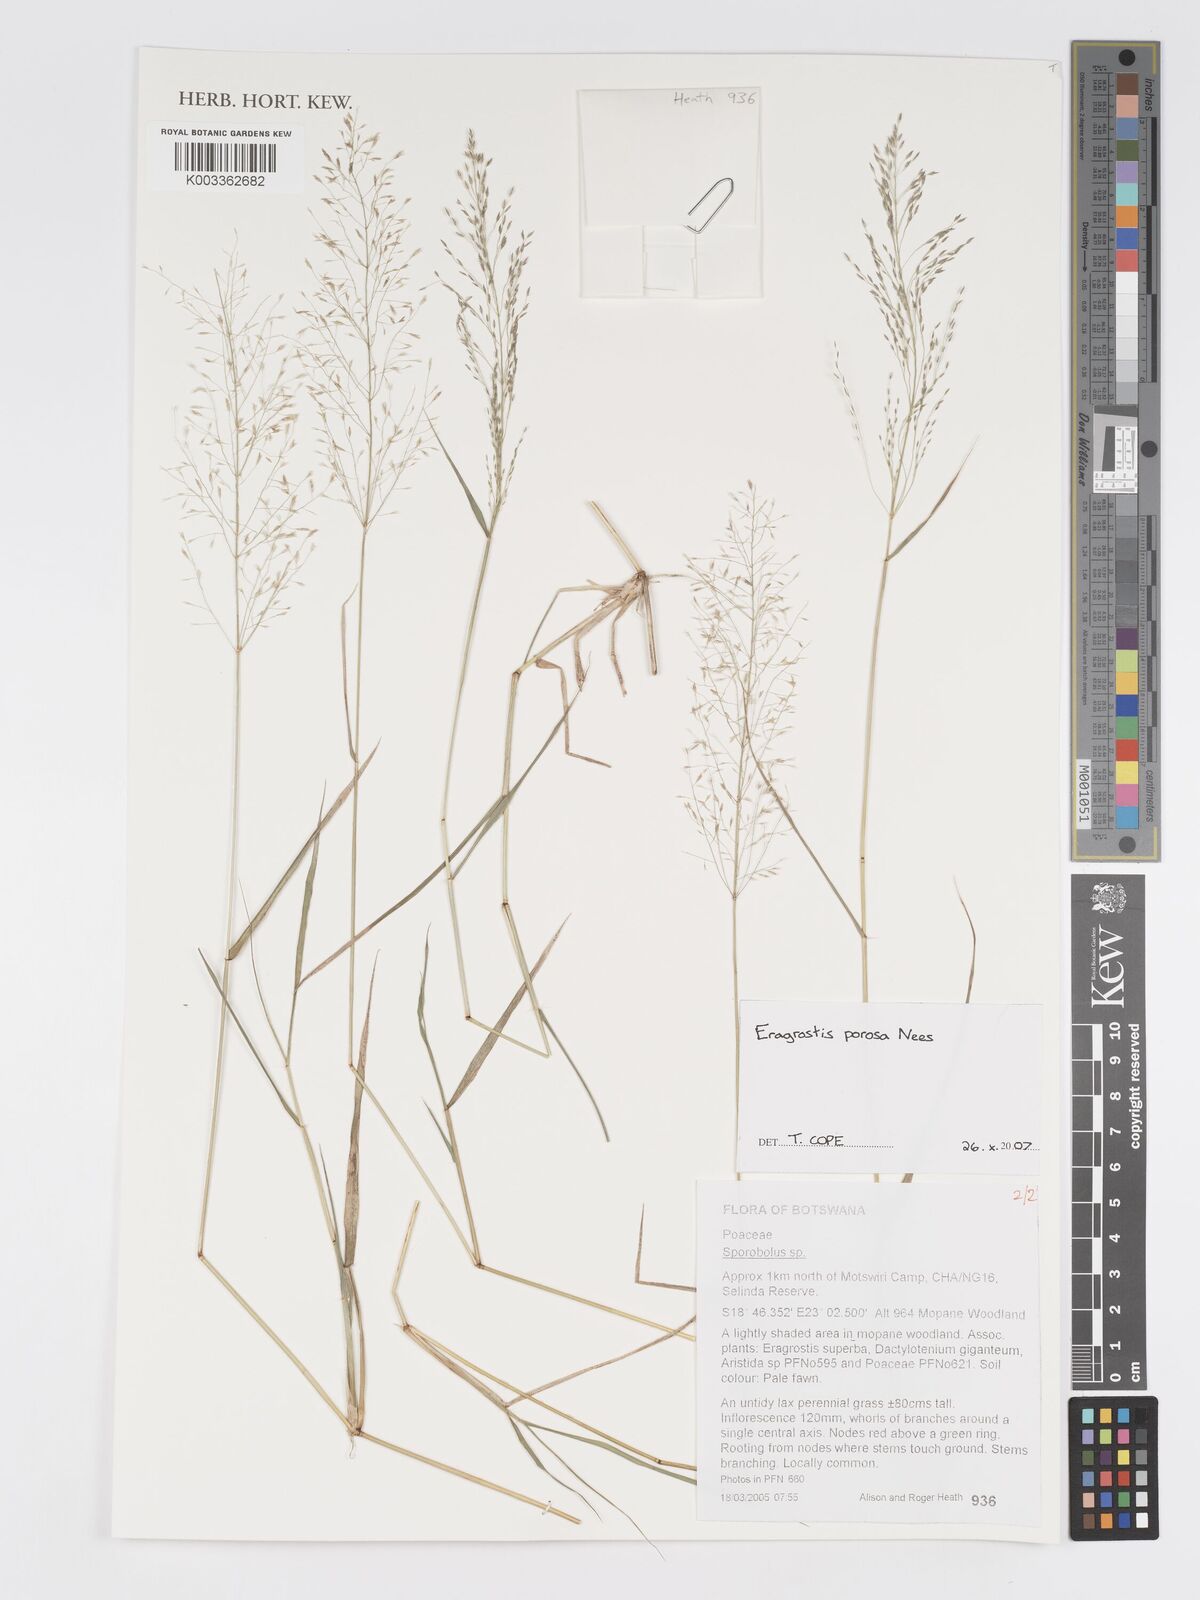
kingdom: Plantae
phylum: Tracheophyta
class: Liliopsida
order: Poales
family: Poaceae
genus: Eragrostis
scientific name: Eragrostis porosa
